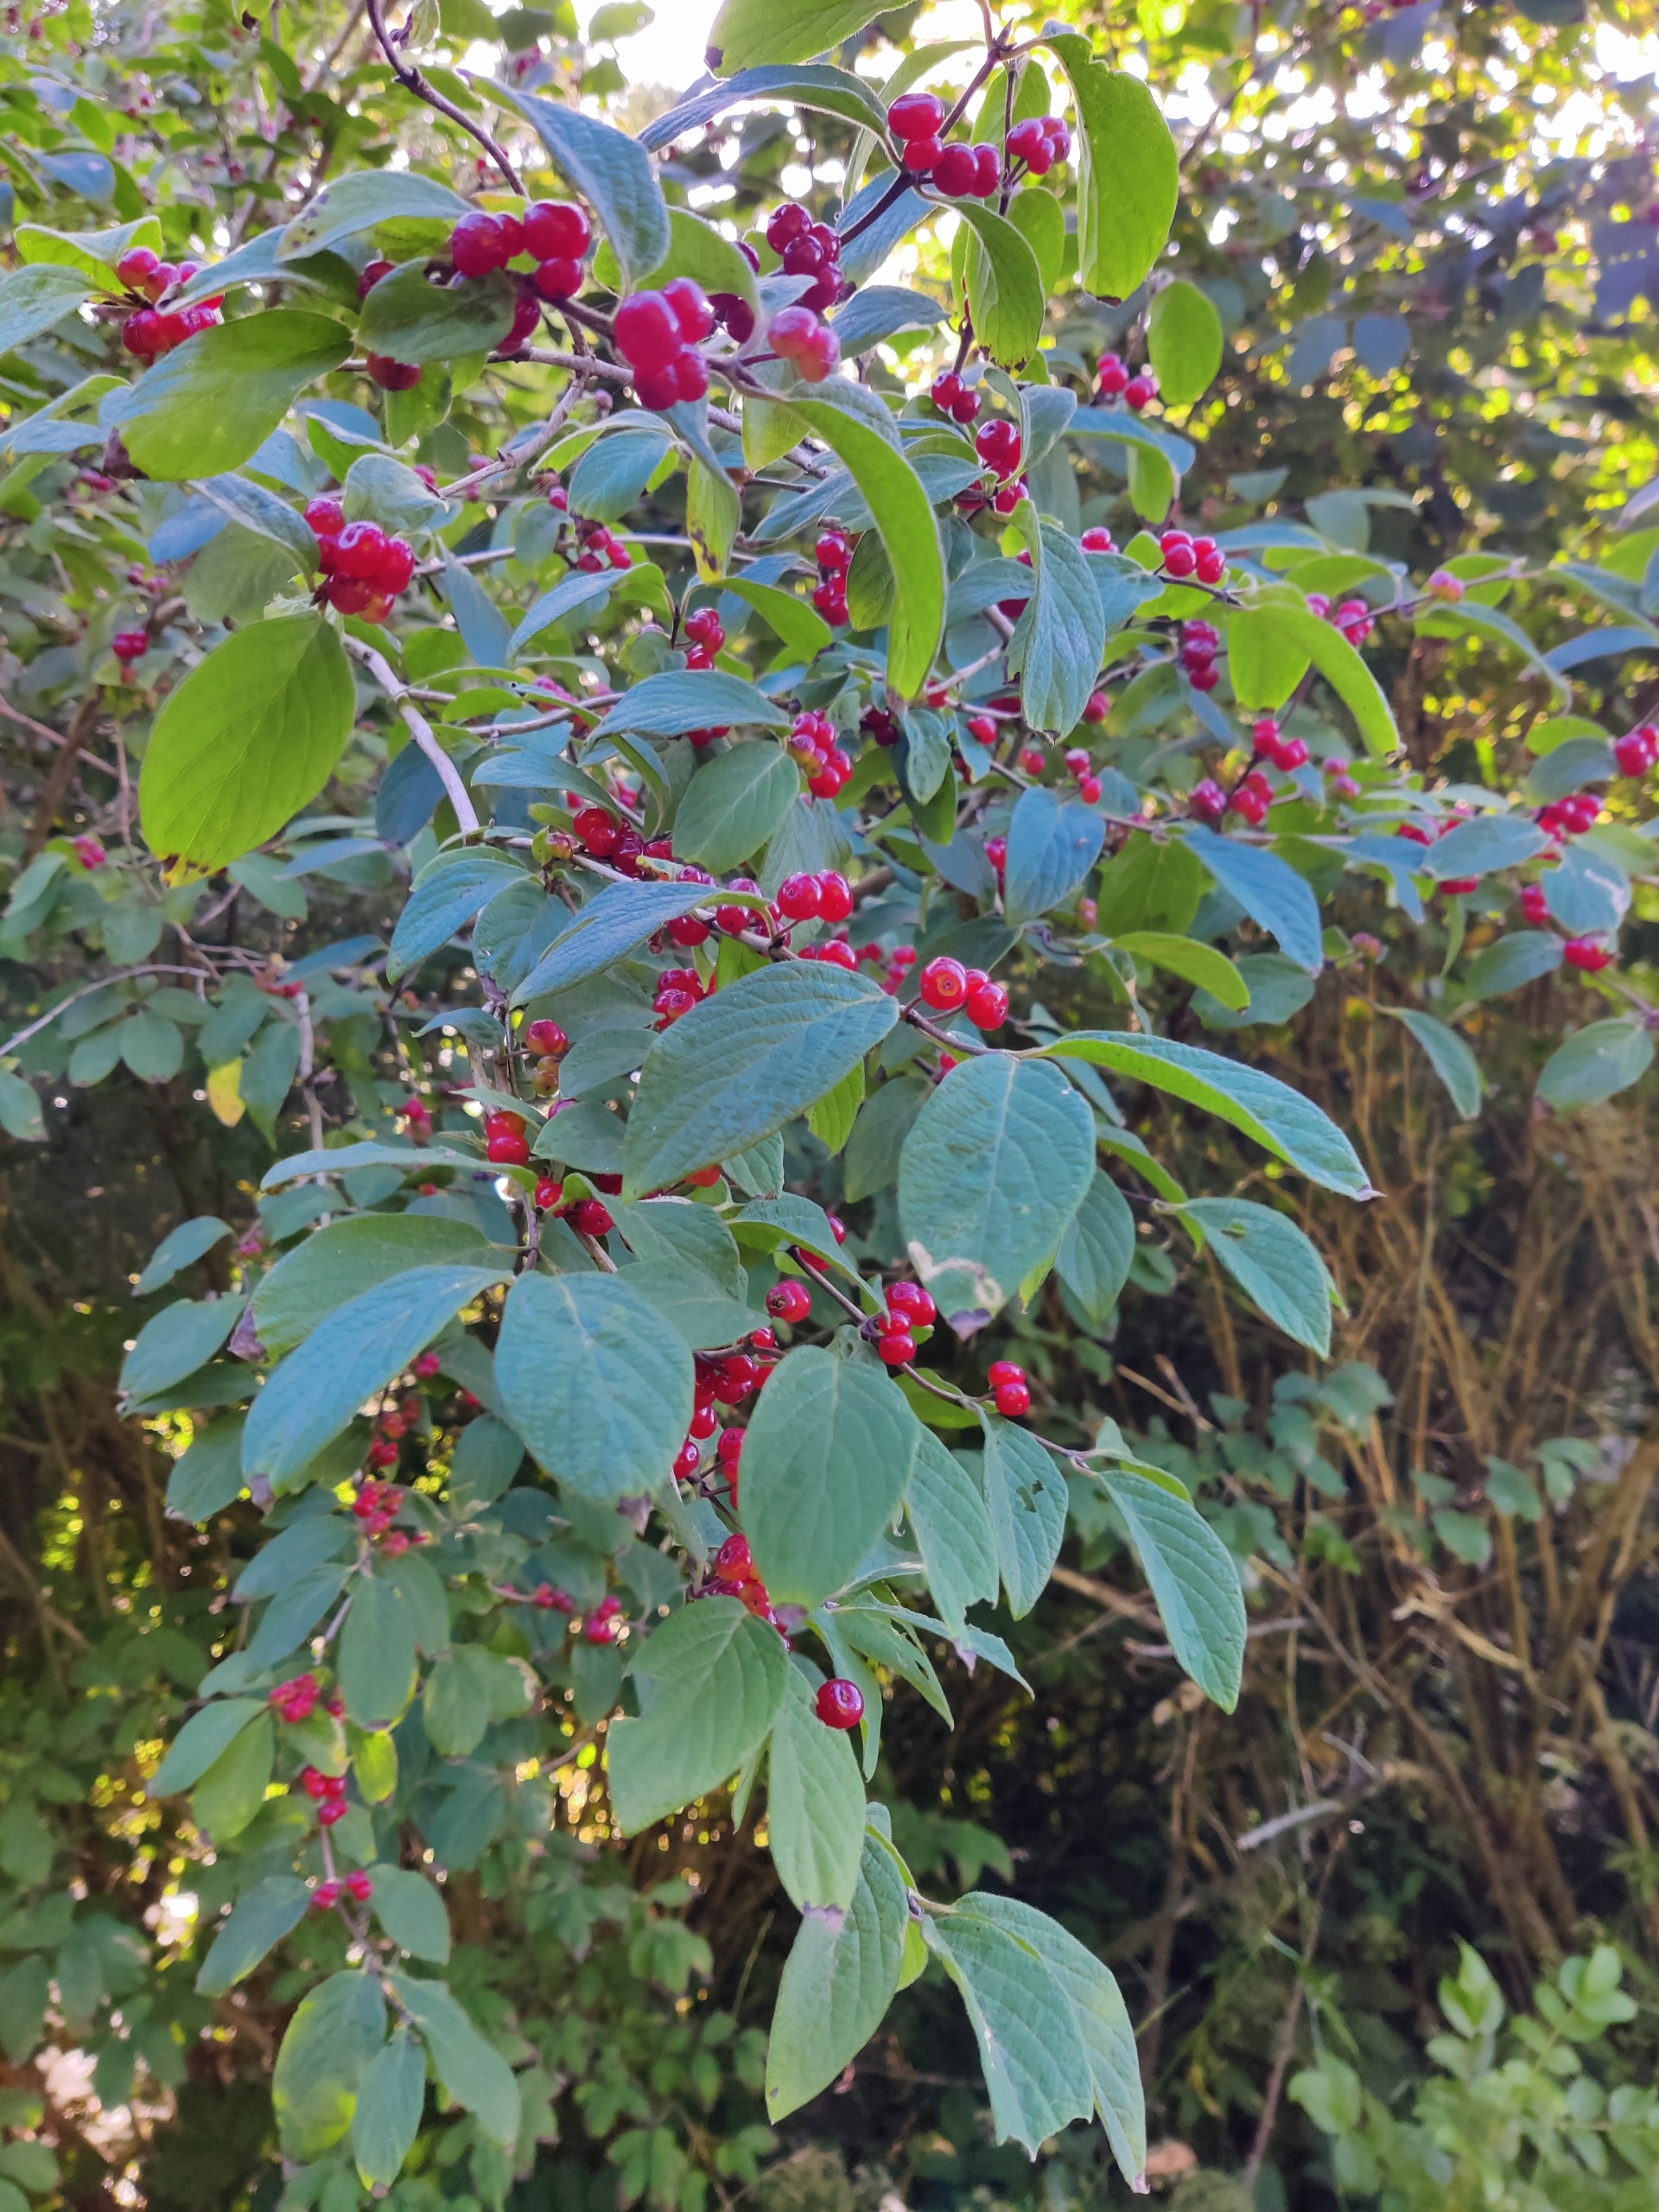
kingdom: Plantae
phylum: Tracheophyta
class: Magnoliopsida
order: Dipsacales
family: Caprifoliaceae
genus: Lonicera
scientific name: Lonicera xylosteum
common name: Dunet gedeblad
